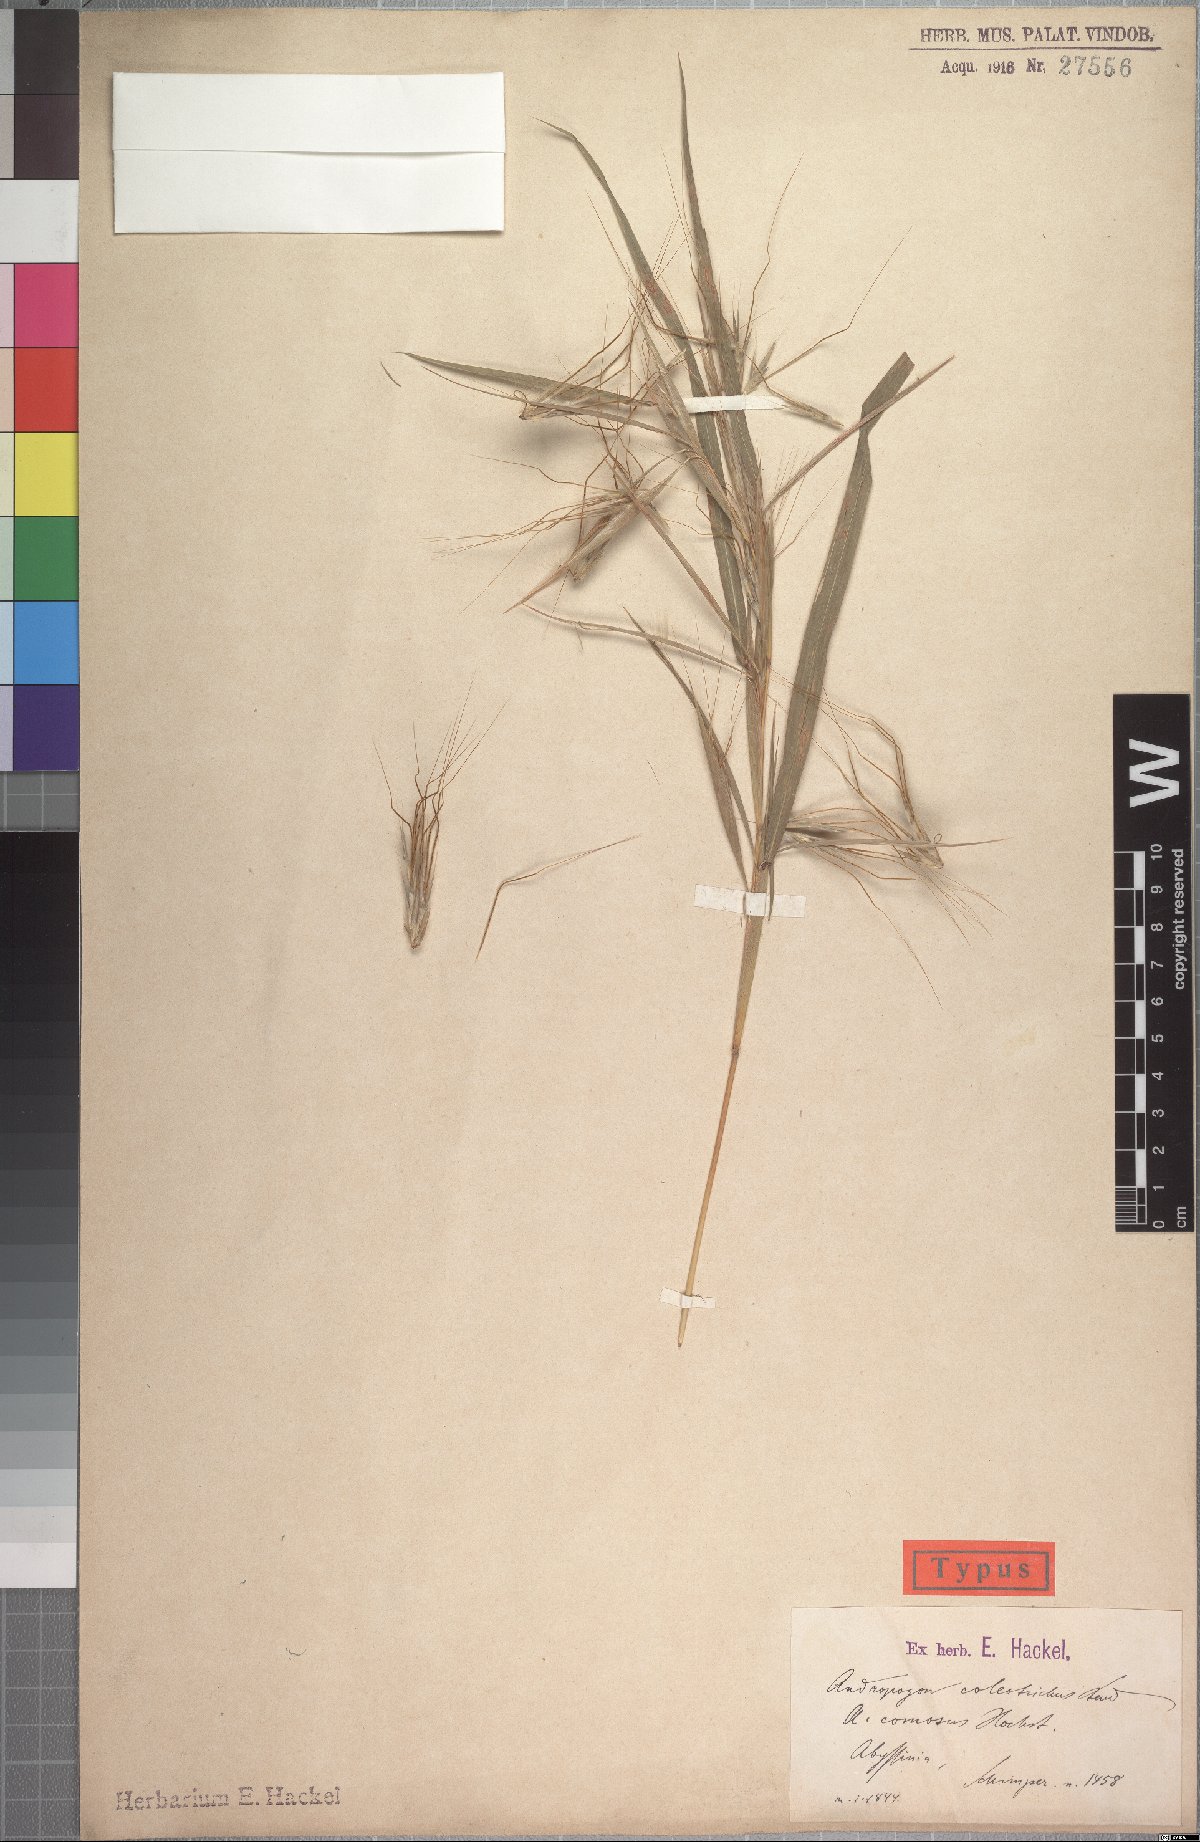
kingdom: Plantae
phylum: Tracheophyta
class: Liliopsida
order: Poales
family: Poaceae
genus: Hyparrhenia
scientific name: Hyparrhenia coleotricha
